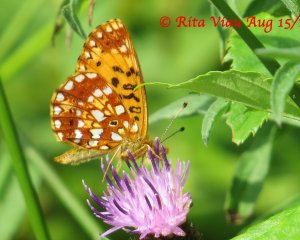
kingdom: Animalia
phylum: Arthropoda
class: Insecta
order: Lepidoptera
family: Nymphalidae
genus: Boloria
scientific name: Boloria selene
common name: Silver-bordered Fritillary
